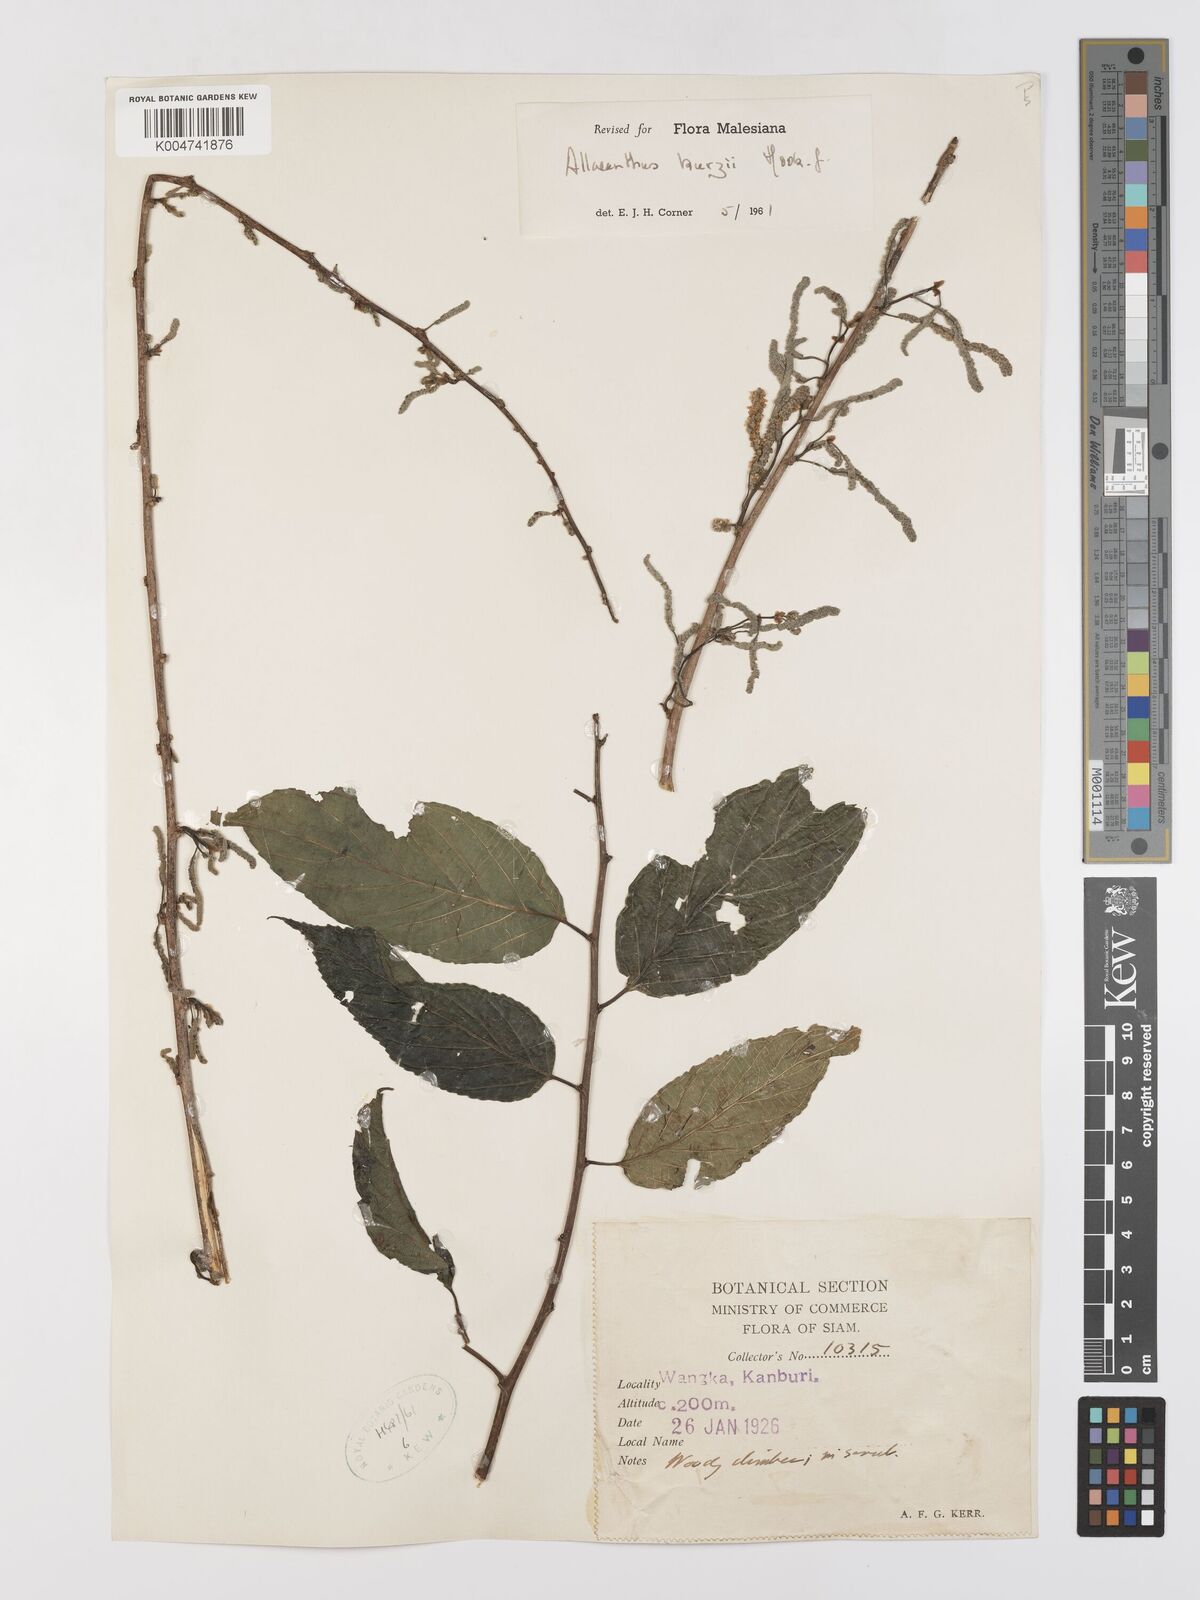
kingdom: Plantae
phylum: Tracheophyta
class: Magnoliopsida
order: Rosales
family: Moraceae
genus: Allaeanthus
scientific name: Allaeanthus kurzii
